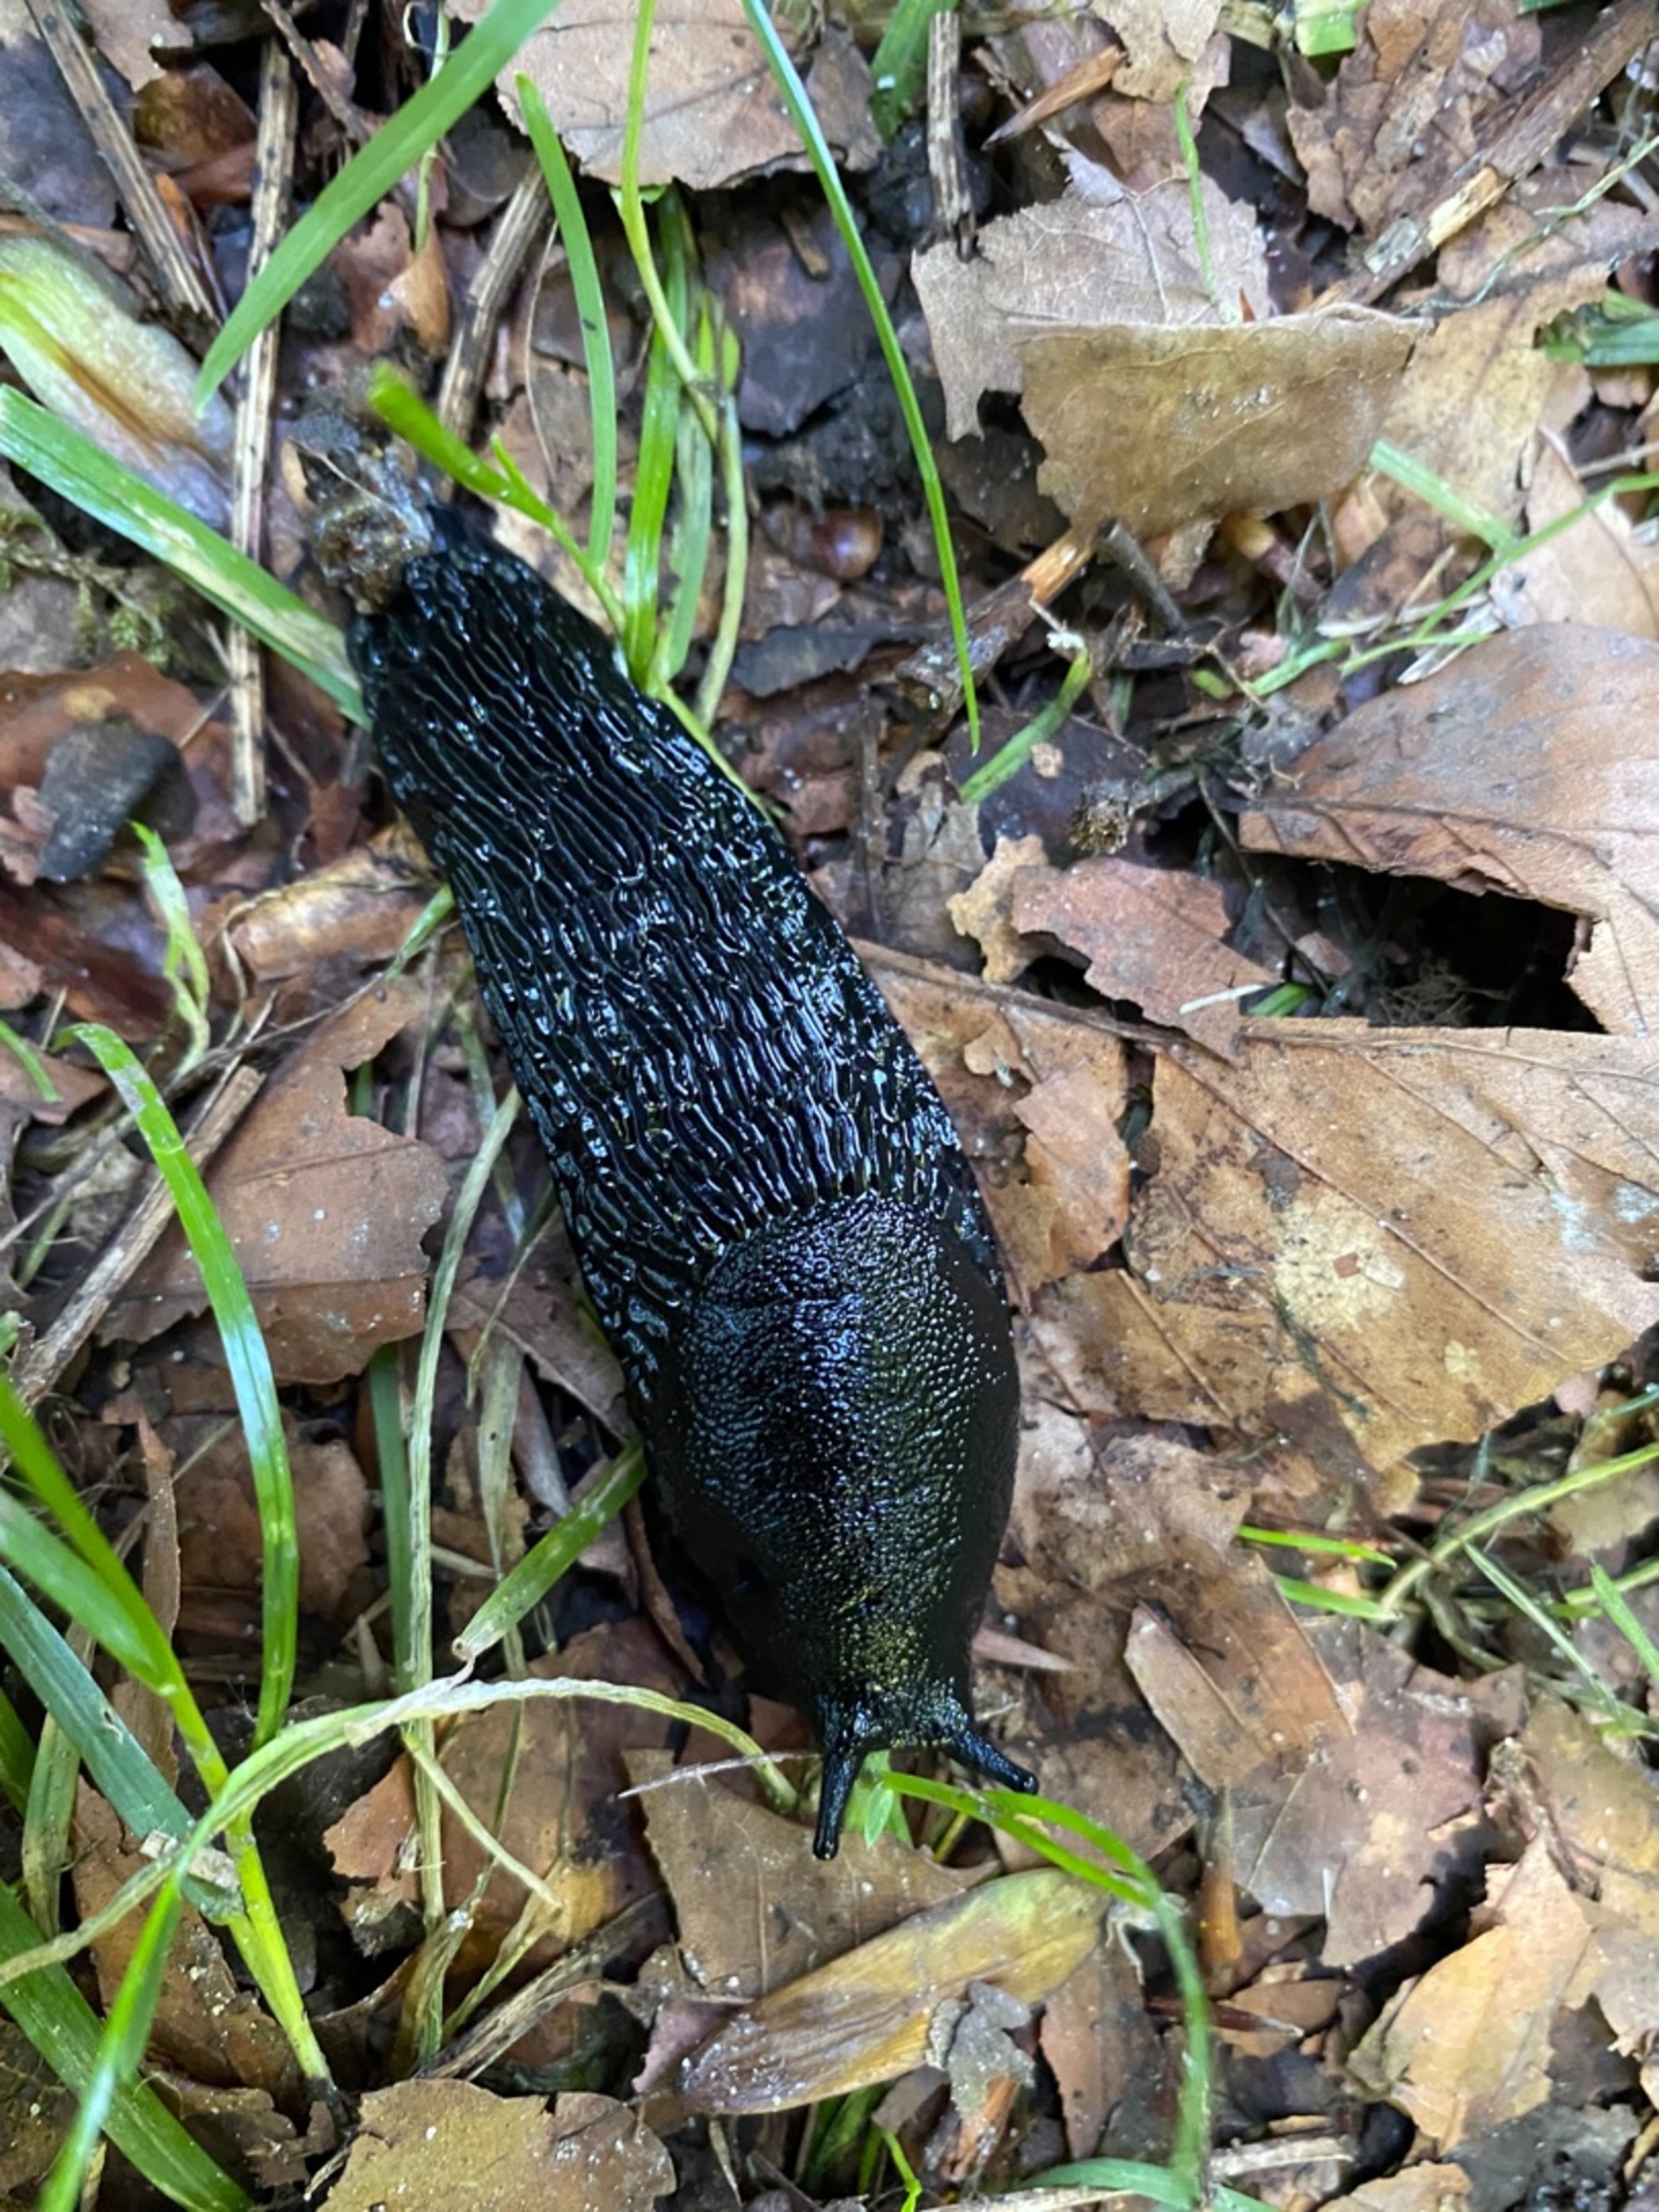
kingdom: Animalia
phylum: Mollusca
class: Gastropoda
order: Stylommatophora
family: Arionidae
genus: Arion
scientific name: Arion ater
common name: Sort skovsnegl
